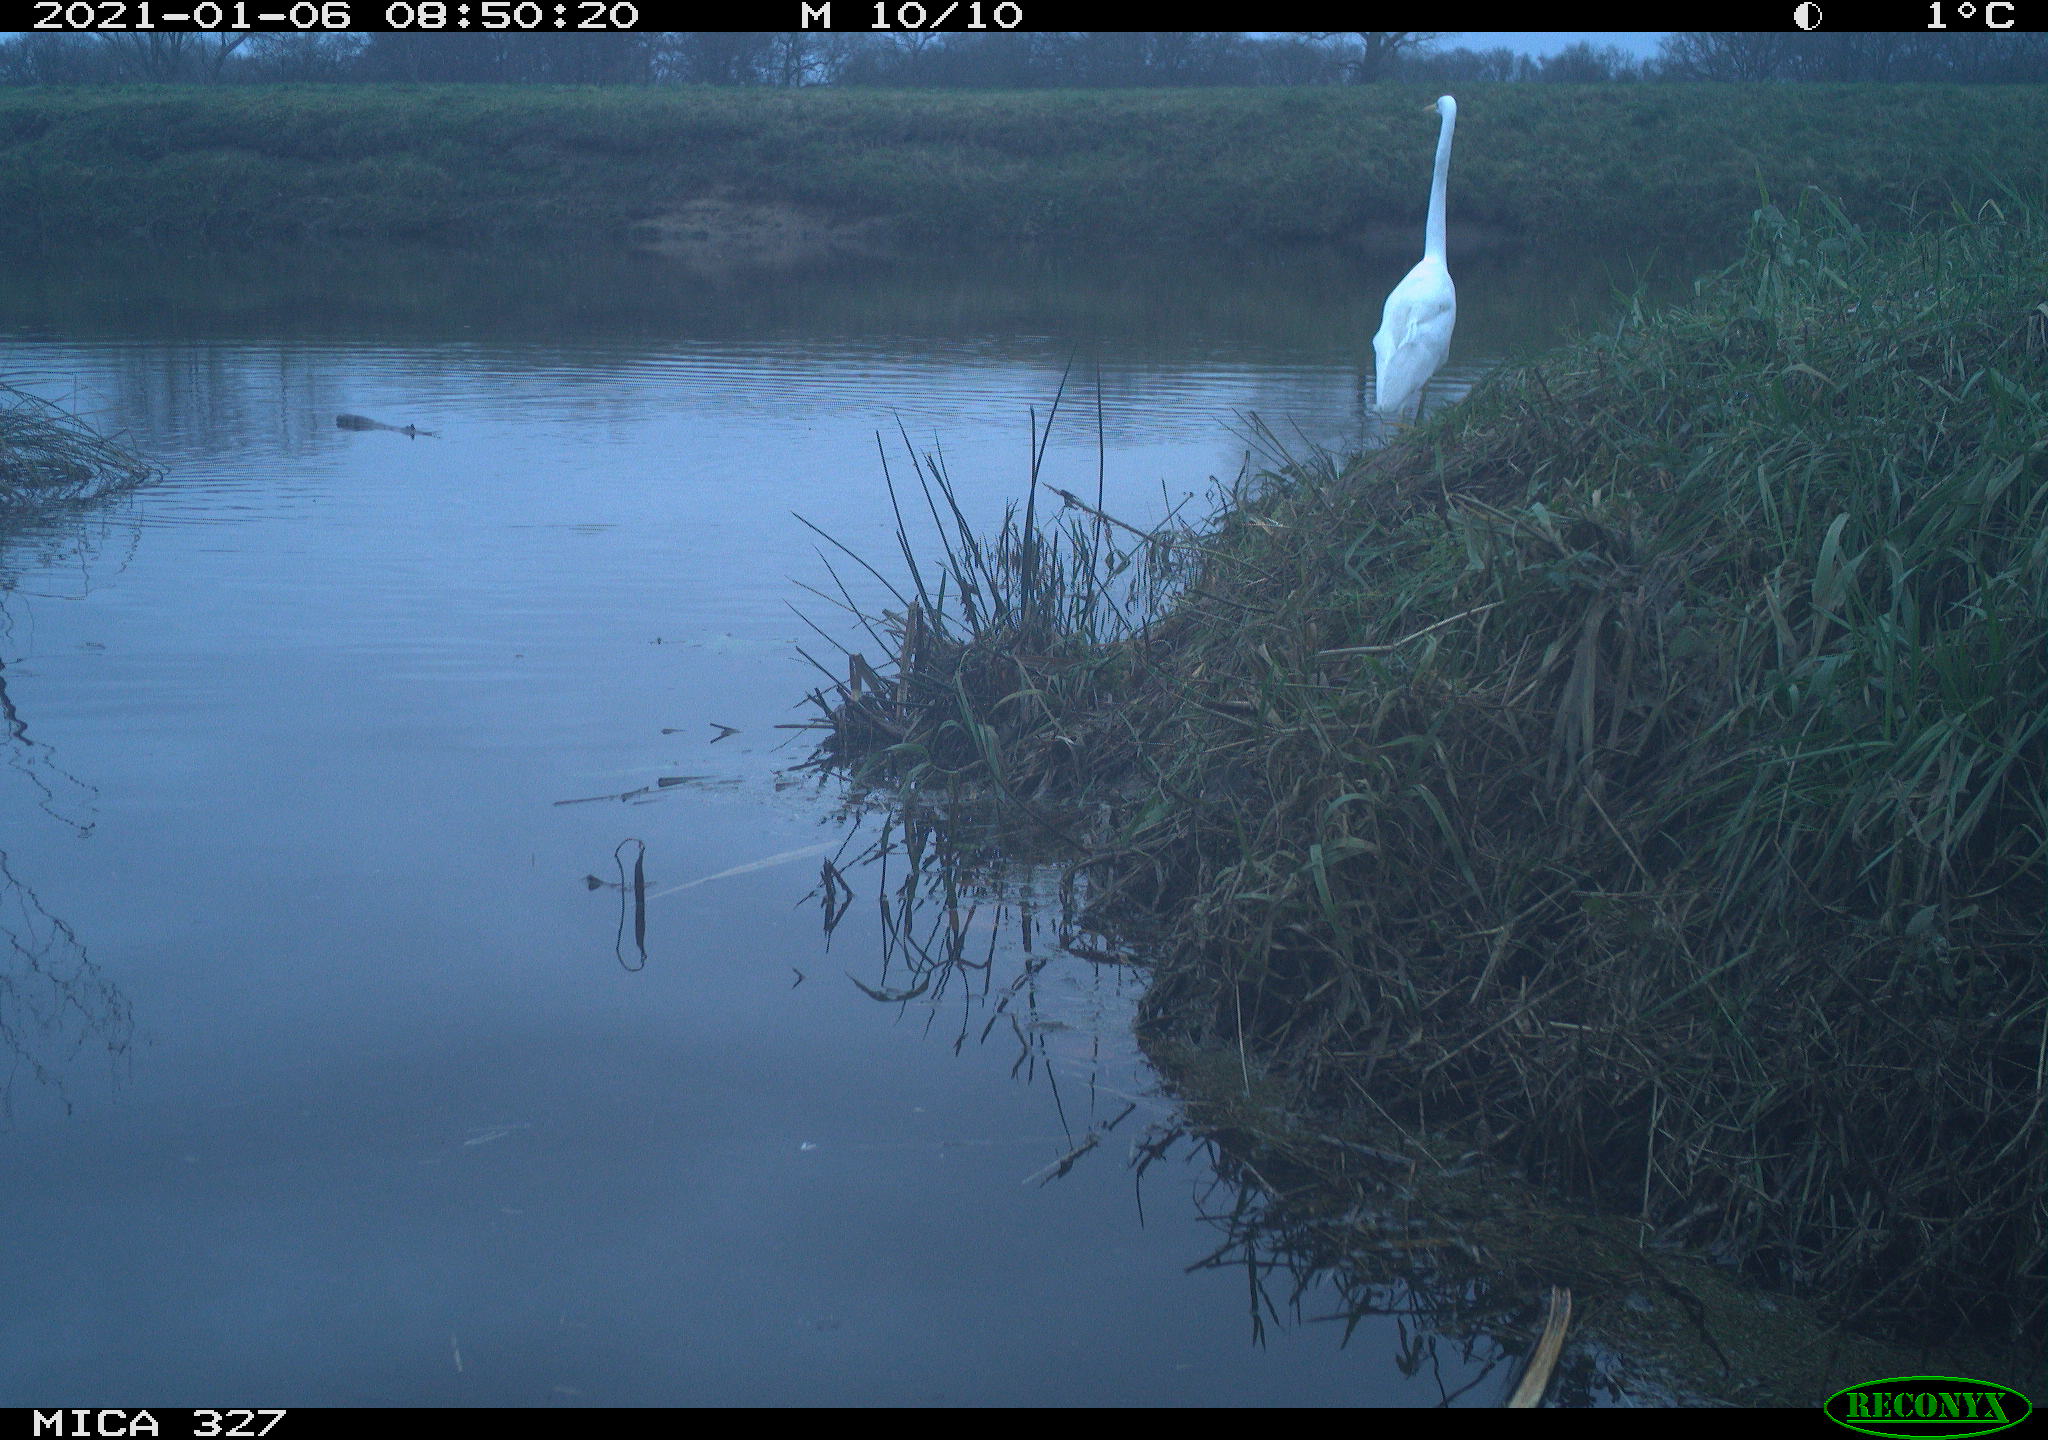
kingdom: Animalia
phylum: Chordata
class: Aves
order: Pelecaniformes
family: Ardeidae
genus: Ardea
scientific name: Ardea alba
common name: Great egret
